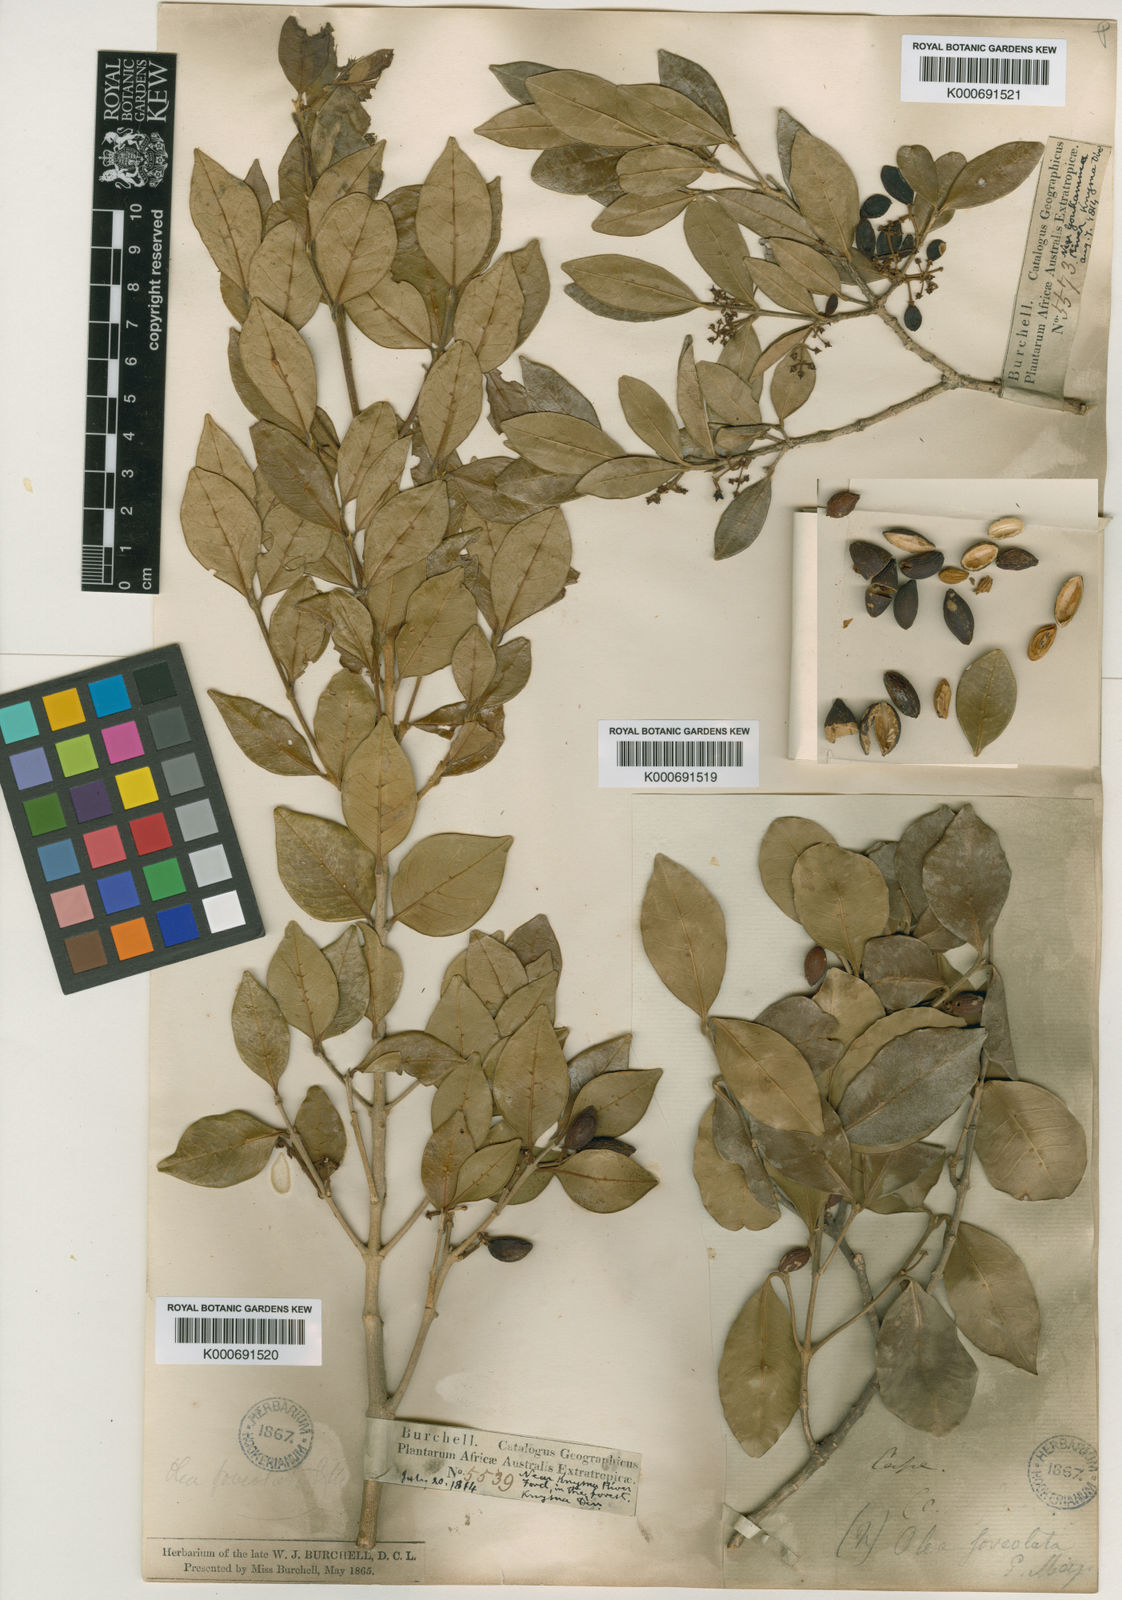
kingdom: Plantae
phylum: Tracheophyta
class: Magnoliopsida
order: Lamiales
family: Oleaceae
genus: Noronhia
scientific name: Noronhia foveolata
